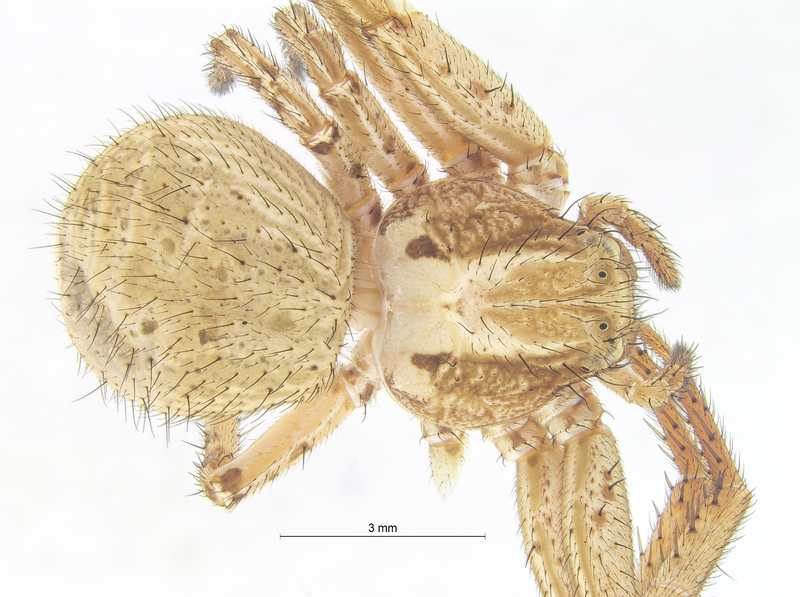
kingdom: Animalia
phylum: Arthropoda
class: Arachnida
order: Araneae
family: Thomisidae
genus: Xysticus
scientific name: Xysticus kochi
